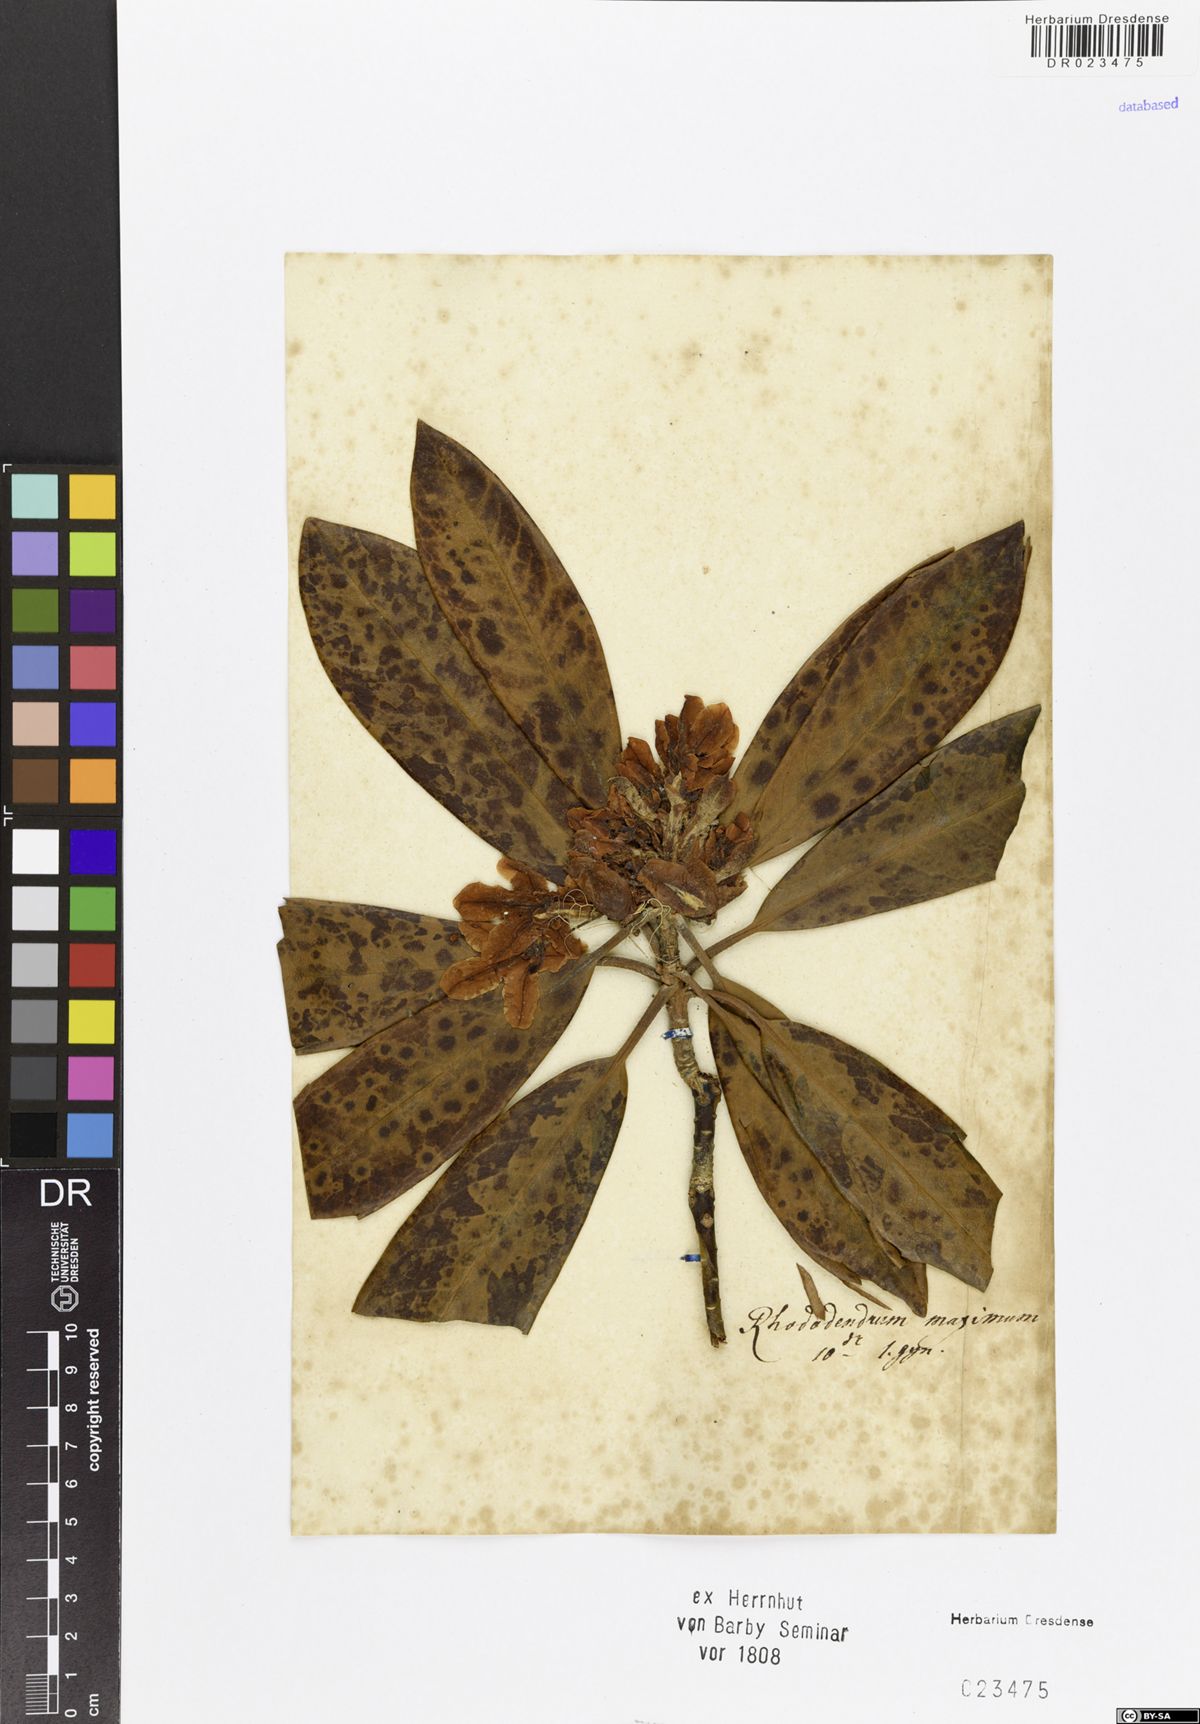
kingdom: Plantae
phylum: Tracheophyta
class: Magnoliopsida
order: Ericales
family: Ericaceae
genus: Rhododendron
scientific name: Rhododendron maximum
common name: Great rhododendron
